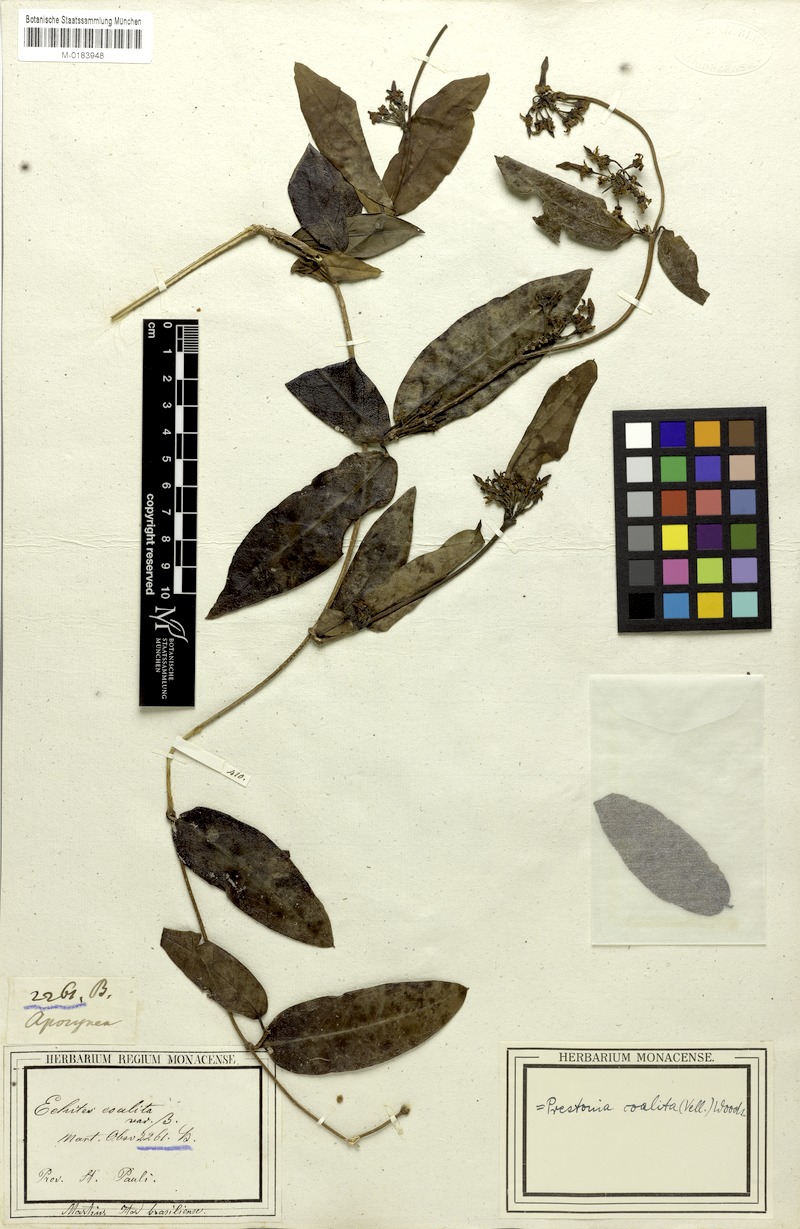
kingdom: Plantae
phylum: Tracheophyta
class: Magnoliopsida
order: Gentianales
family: Apocynaceae
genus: Prestonia
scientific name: Prestonia coalita
